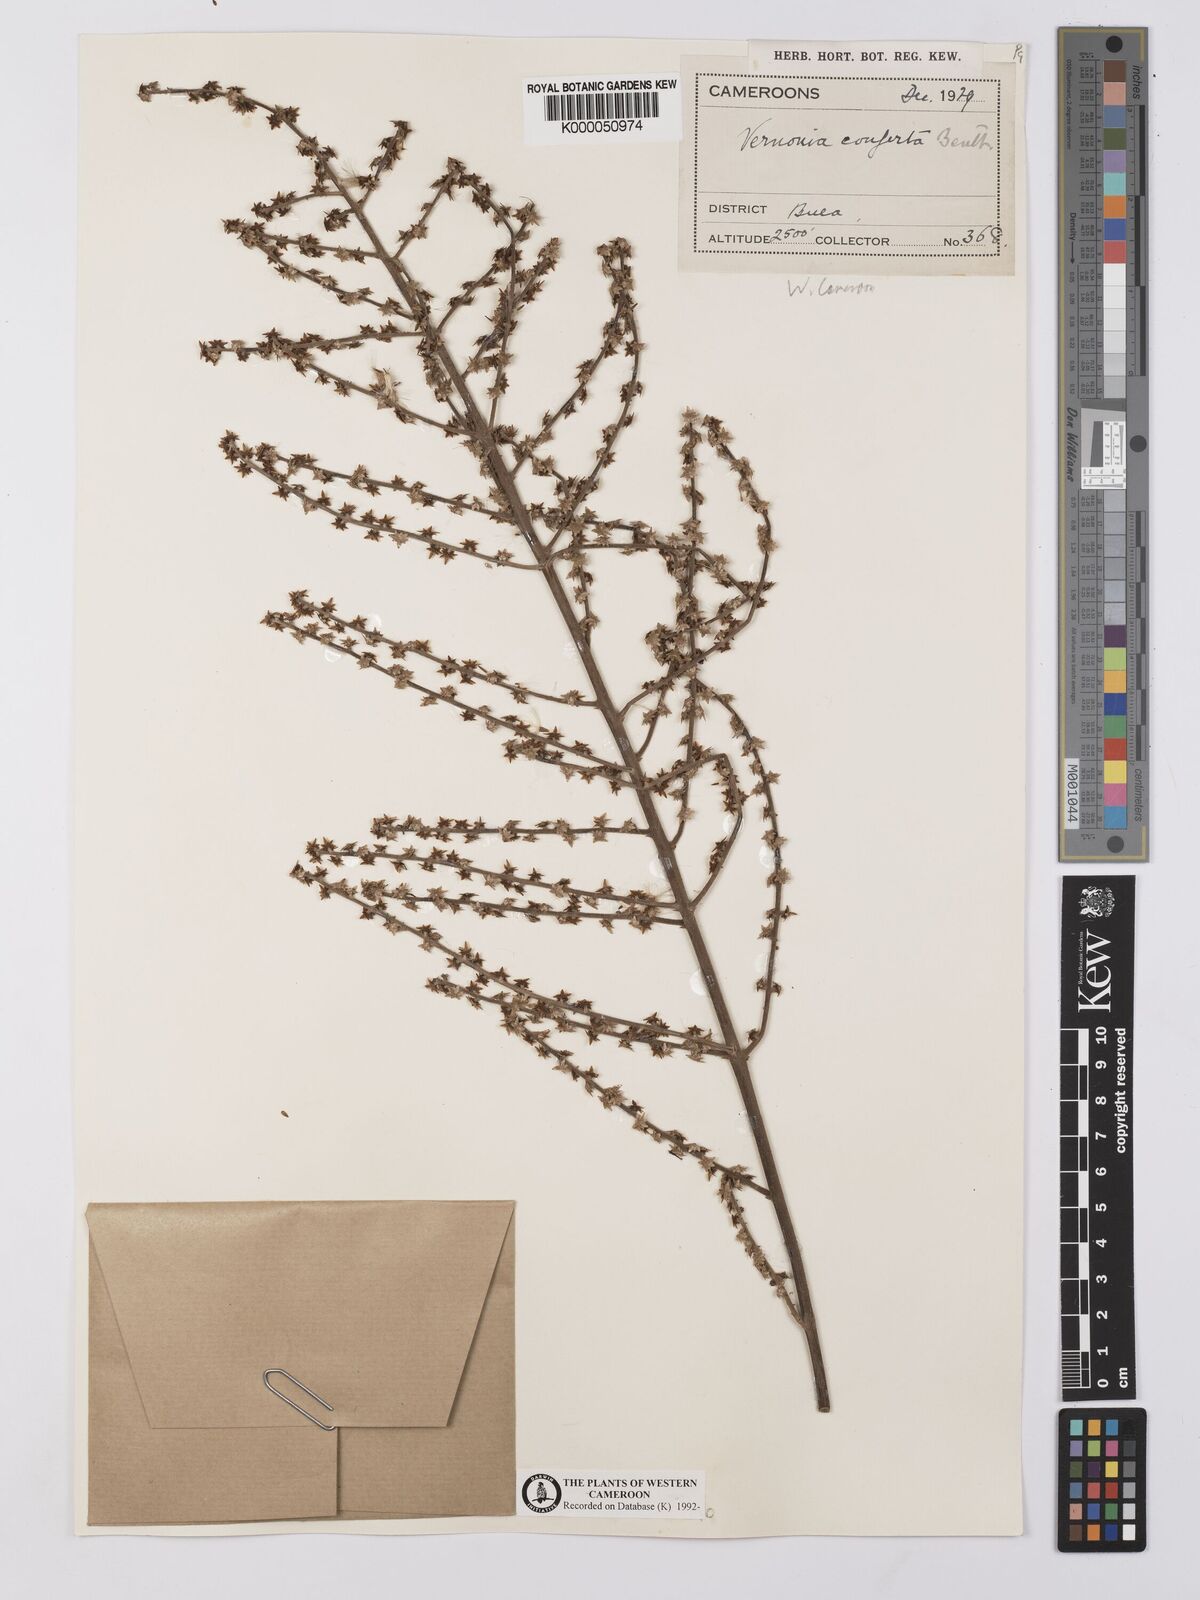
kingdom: Plantae
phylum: Tracheophyta
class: Magnoliopsida
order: Asterales
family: Asteraceae
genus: Brenandendron
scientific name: Brenandendron donianum
